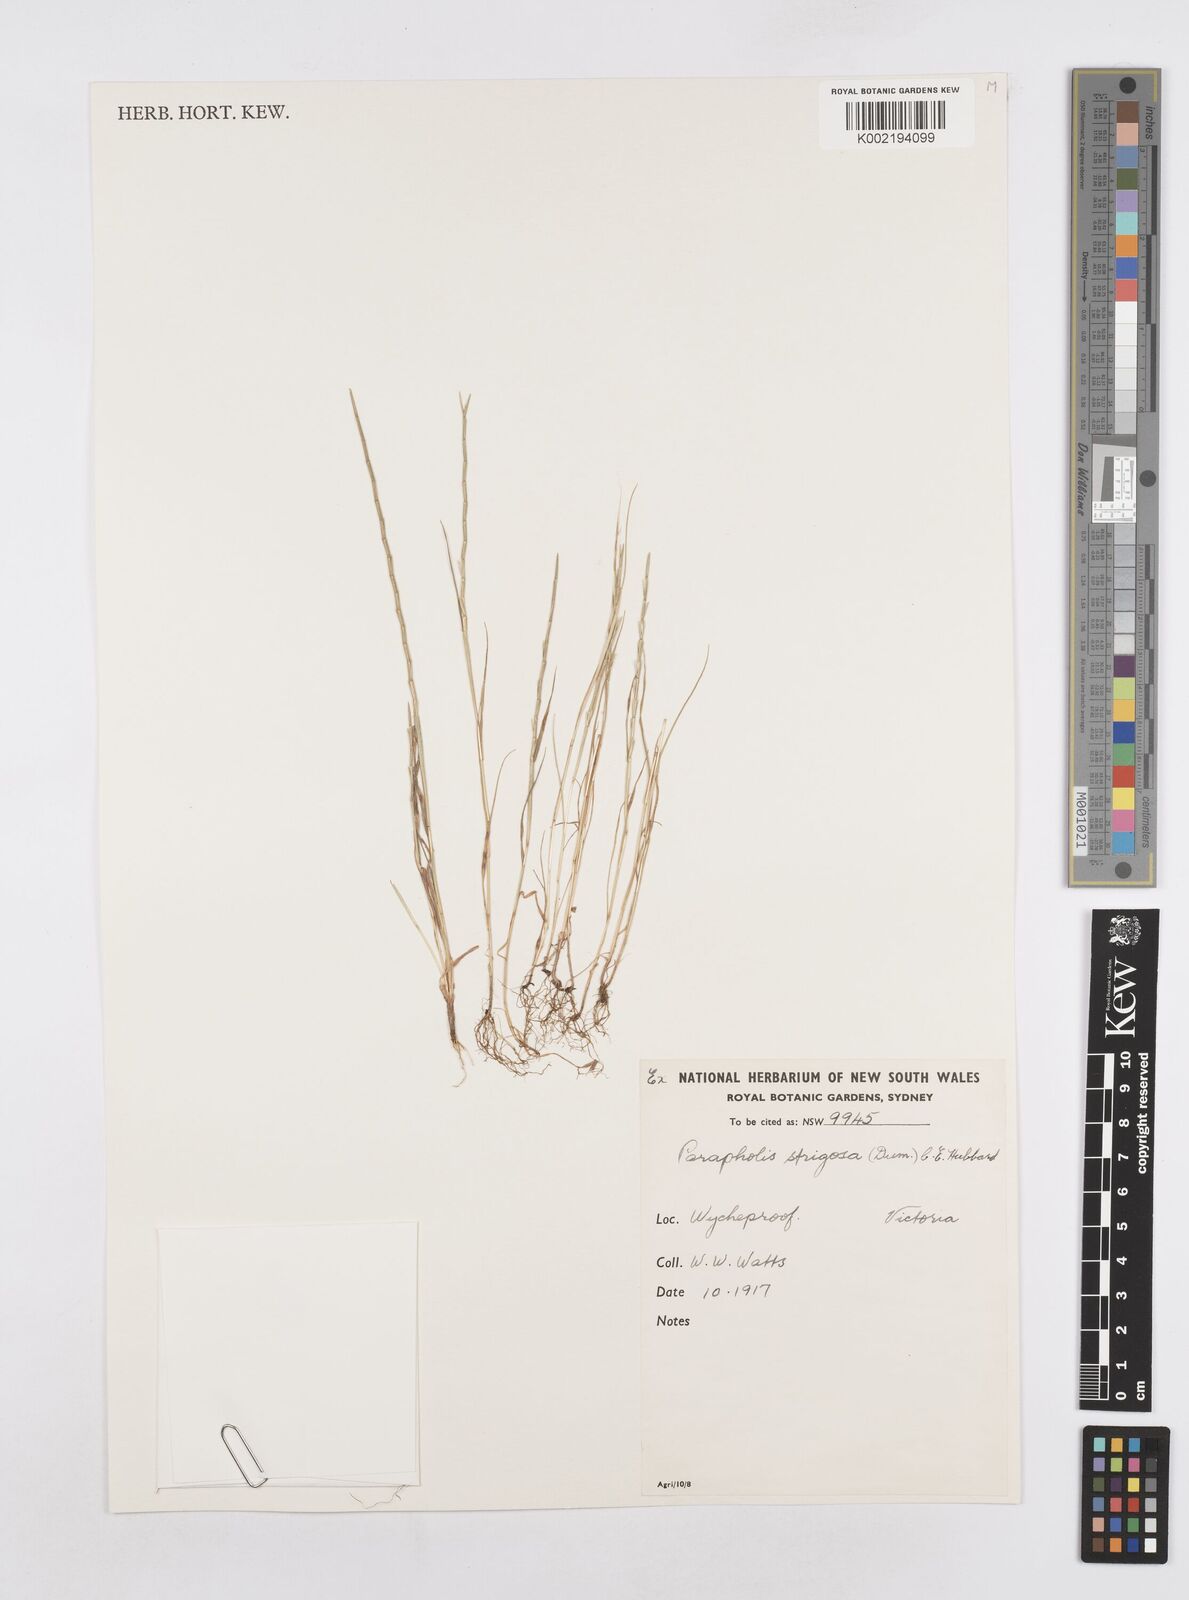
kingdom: Plantae
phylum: Tracheophyta
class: Liliopsida
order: Poales
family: Poaceae
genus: Parapholis
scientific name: Parapholis strigosa
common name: Hard-grass
